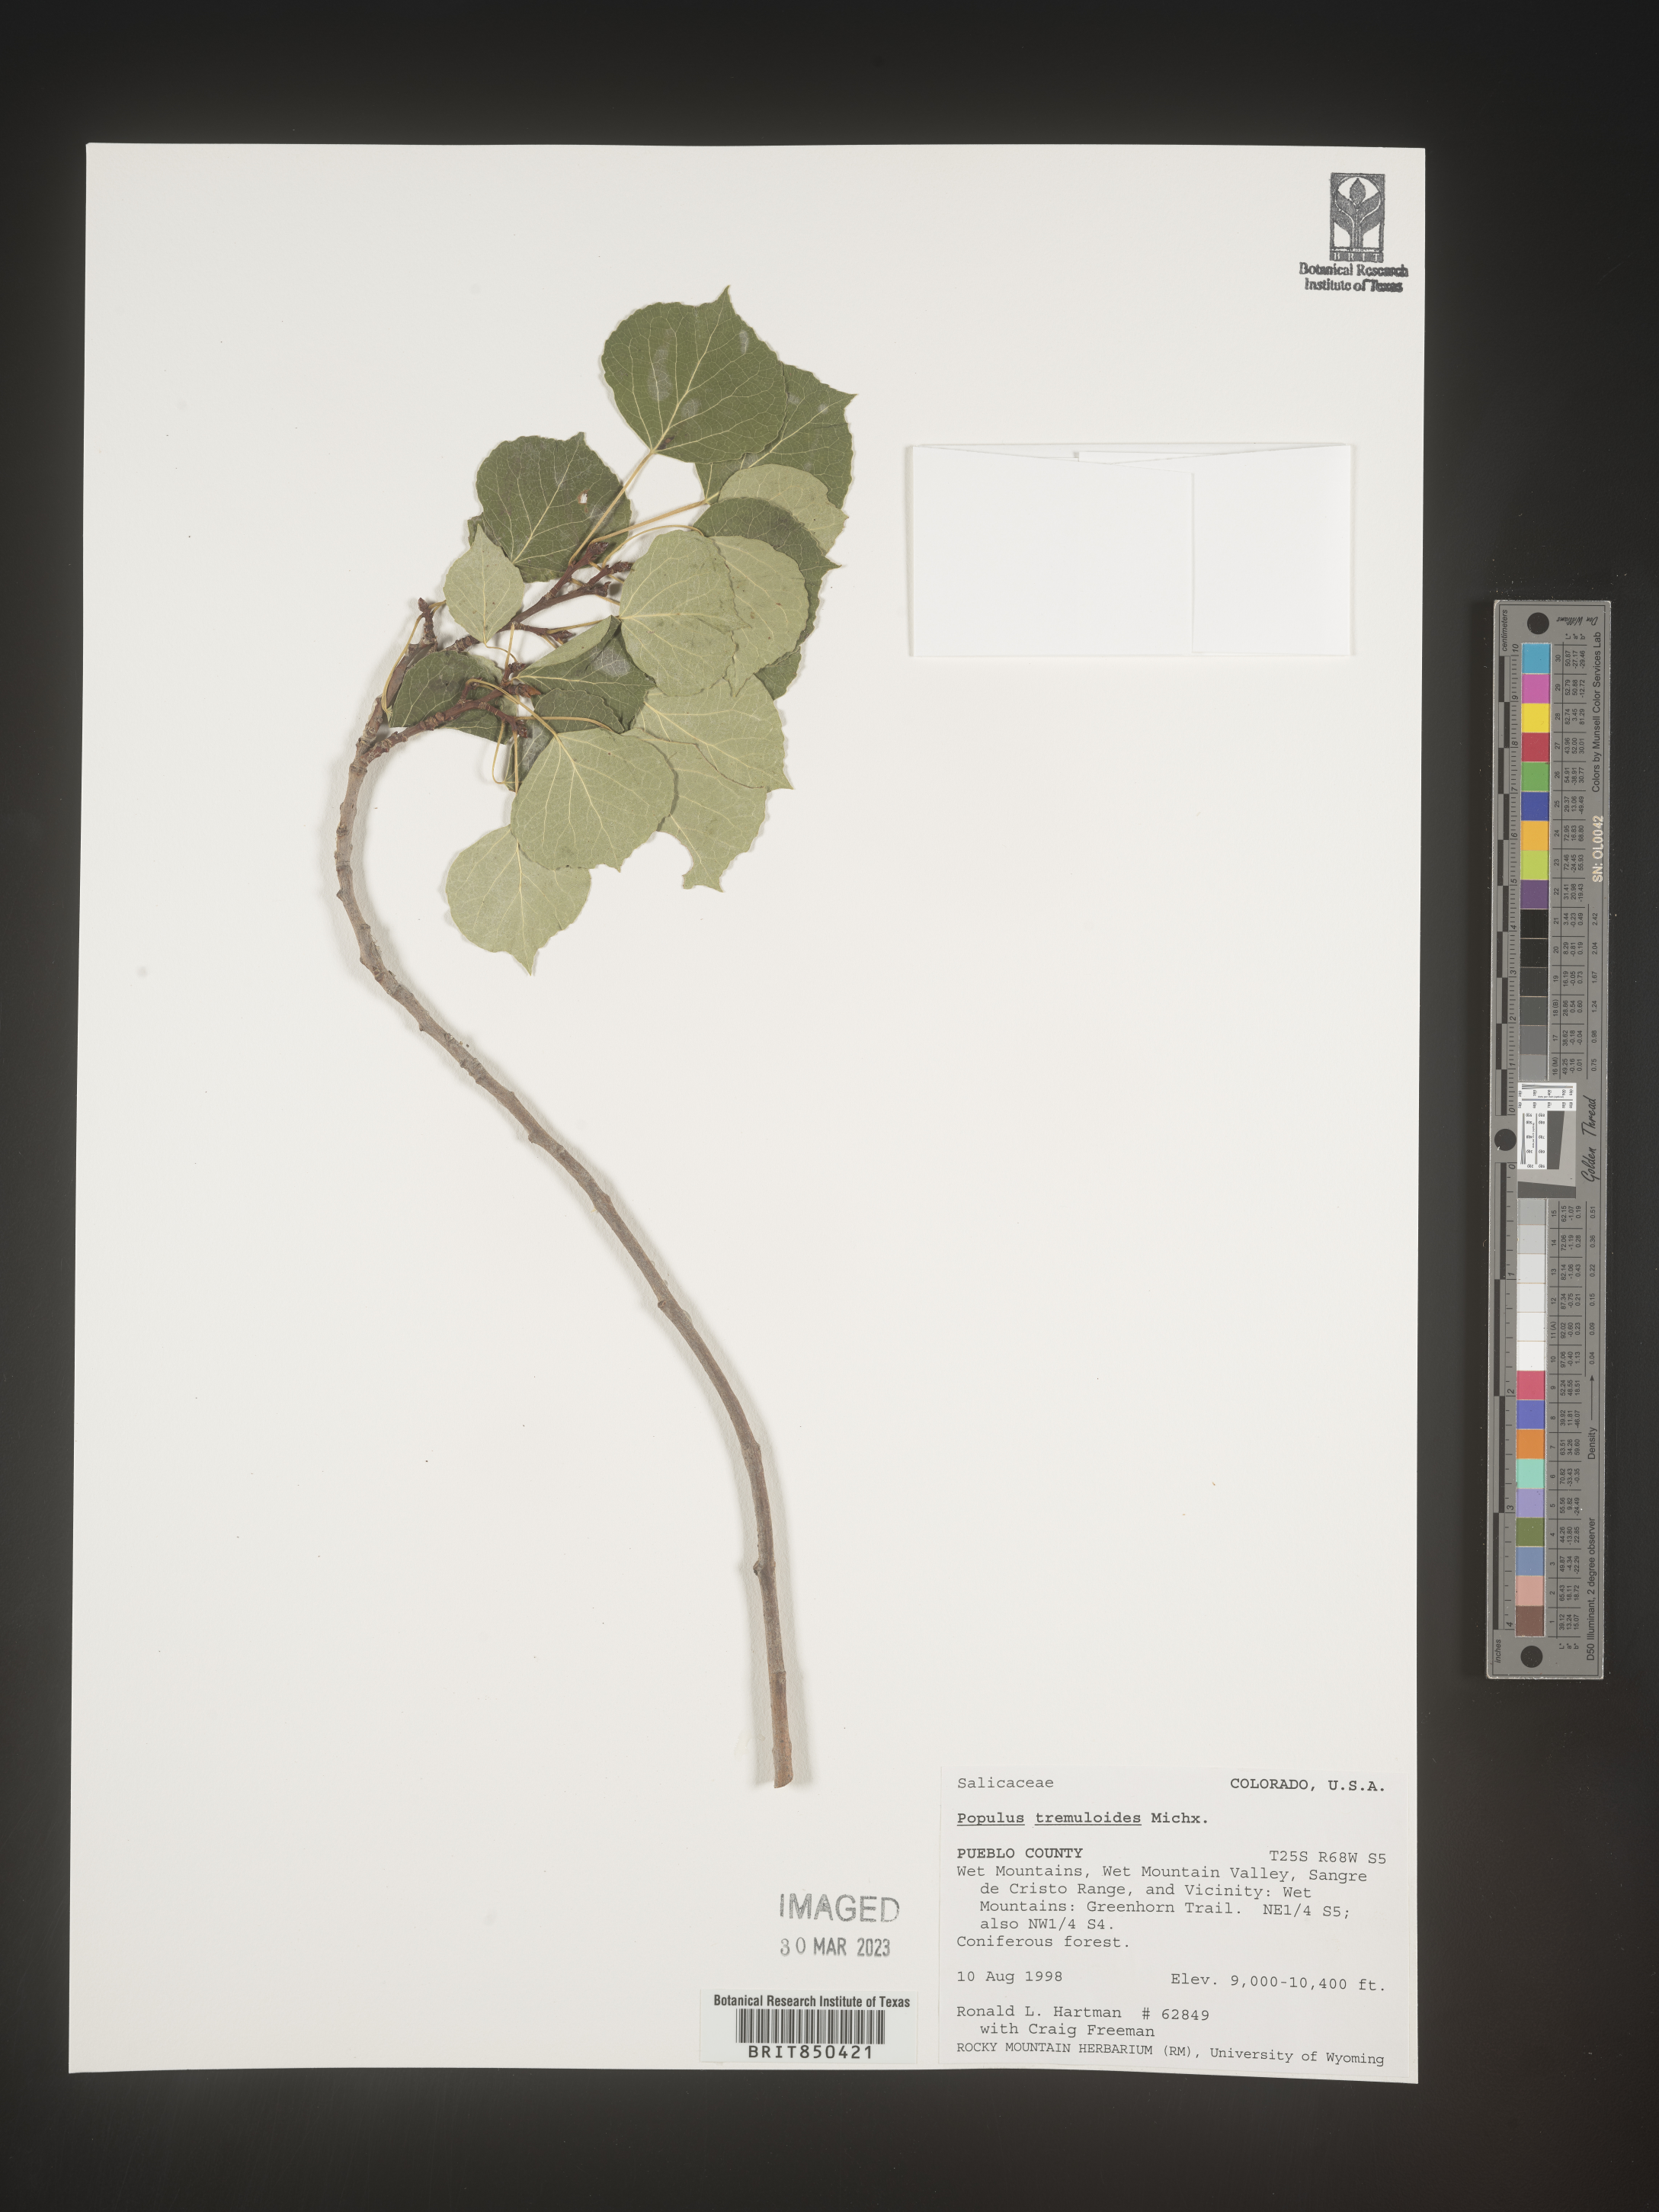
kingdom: Plantae
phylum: Tracheophyta
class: Magnoliopsida
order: Malpighiales
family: Salicaceae
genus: Populus
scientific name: Populus tremuloides
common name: Quaking aspen
